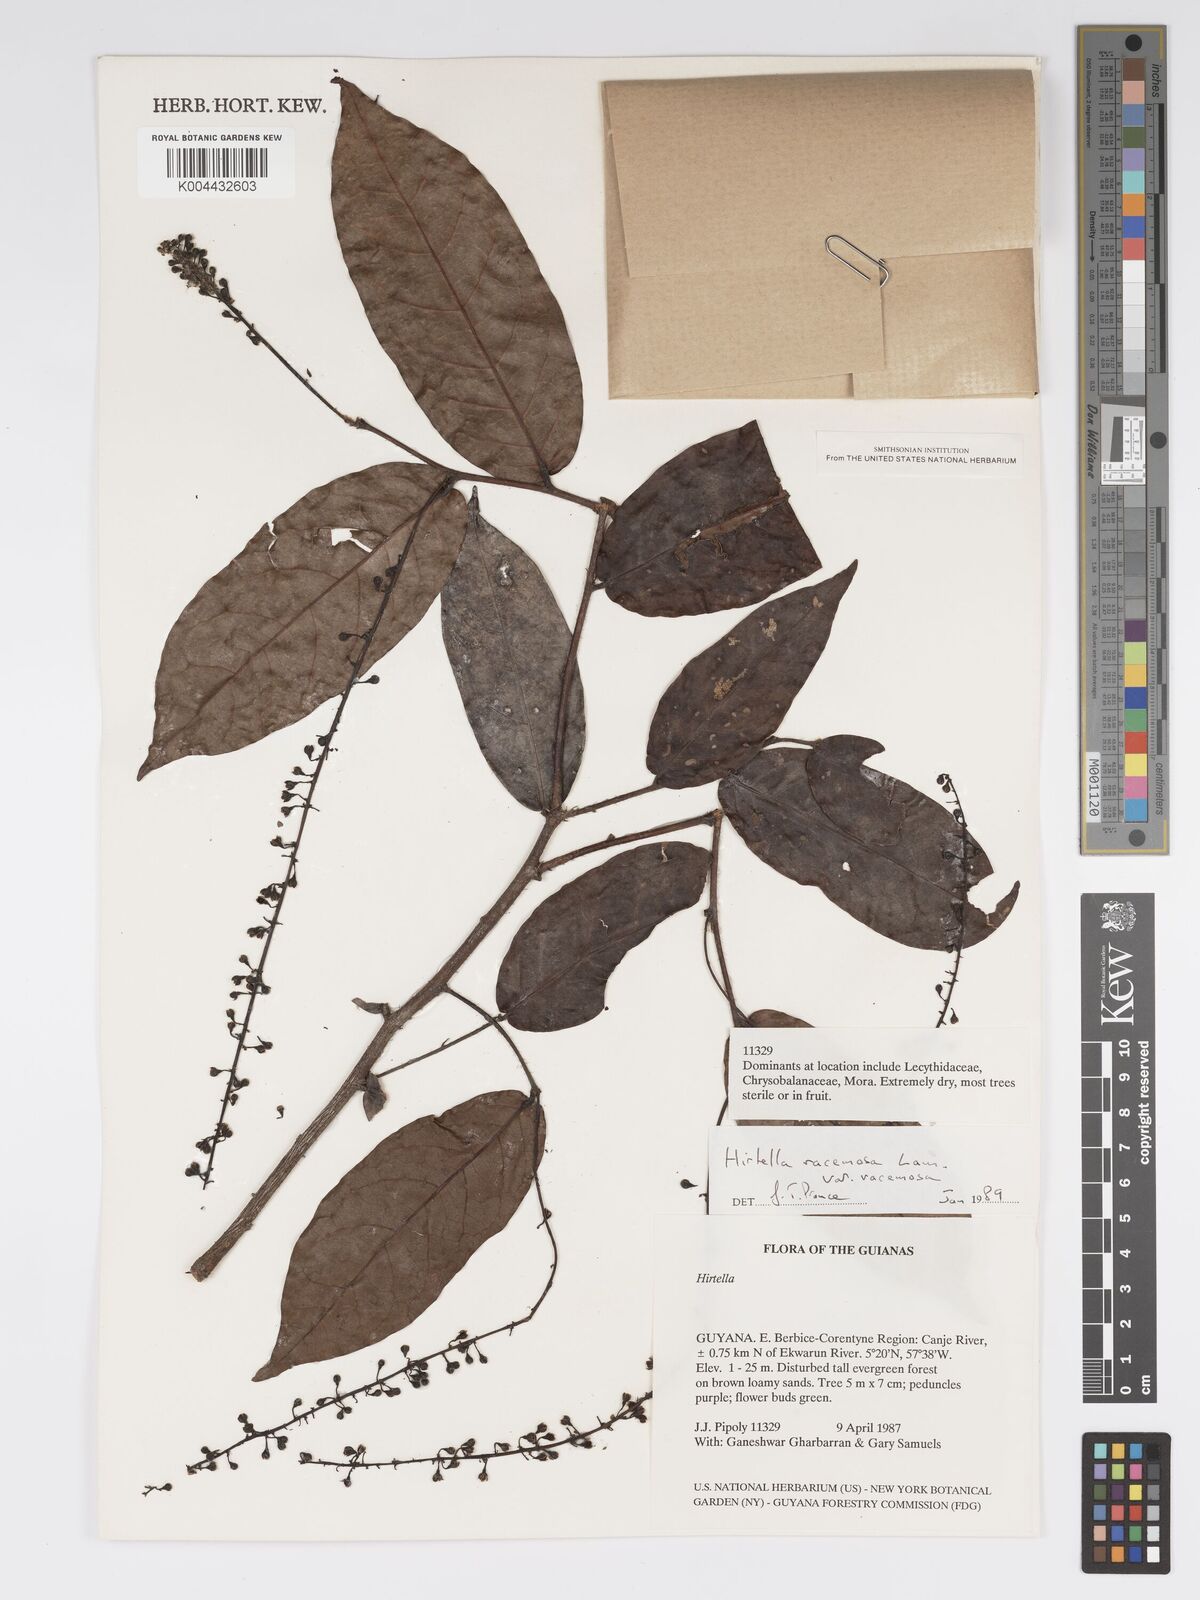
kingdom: Plantae
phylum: Tracheophyta
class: Magnoliopsida
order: Malpighiales
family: Chrysobalanaceae
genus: Hirtella
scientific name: Hirtella racemosa
